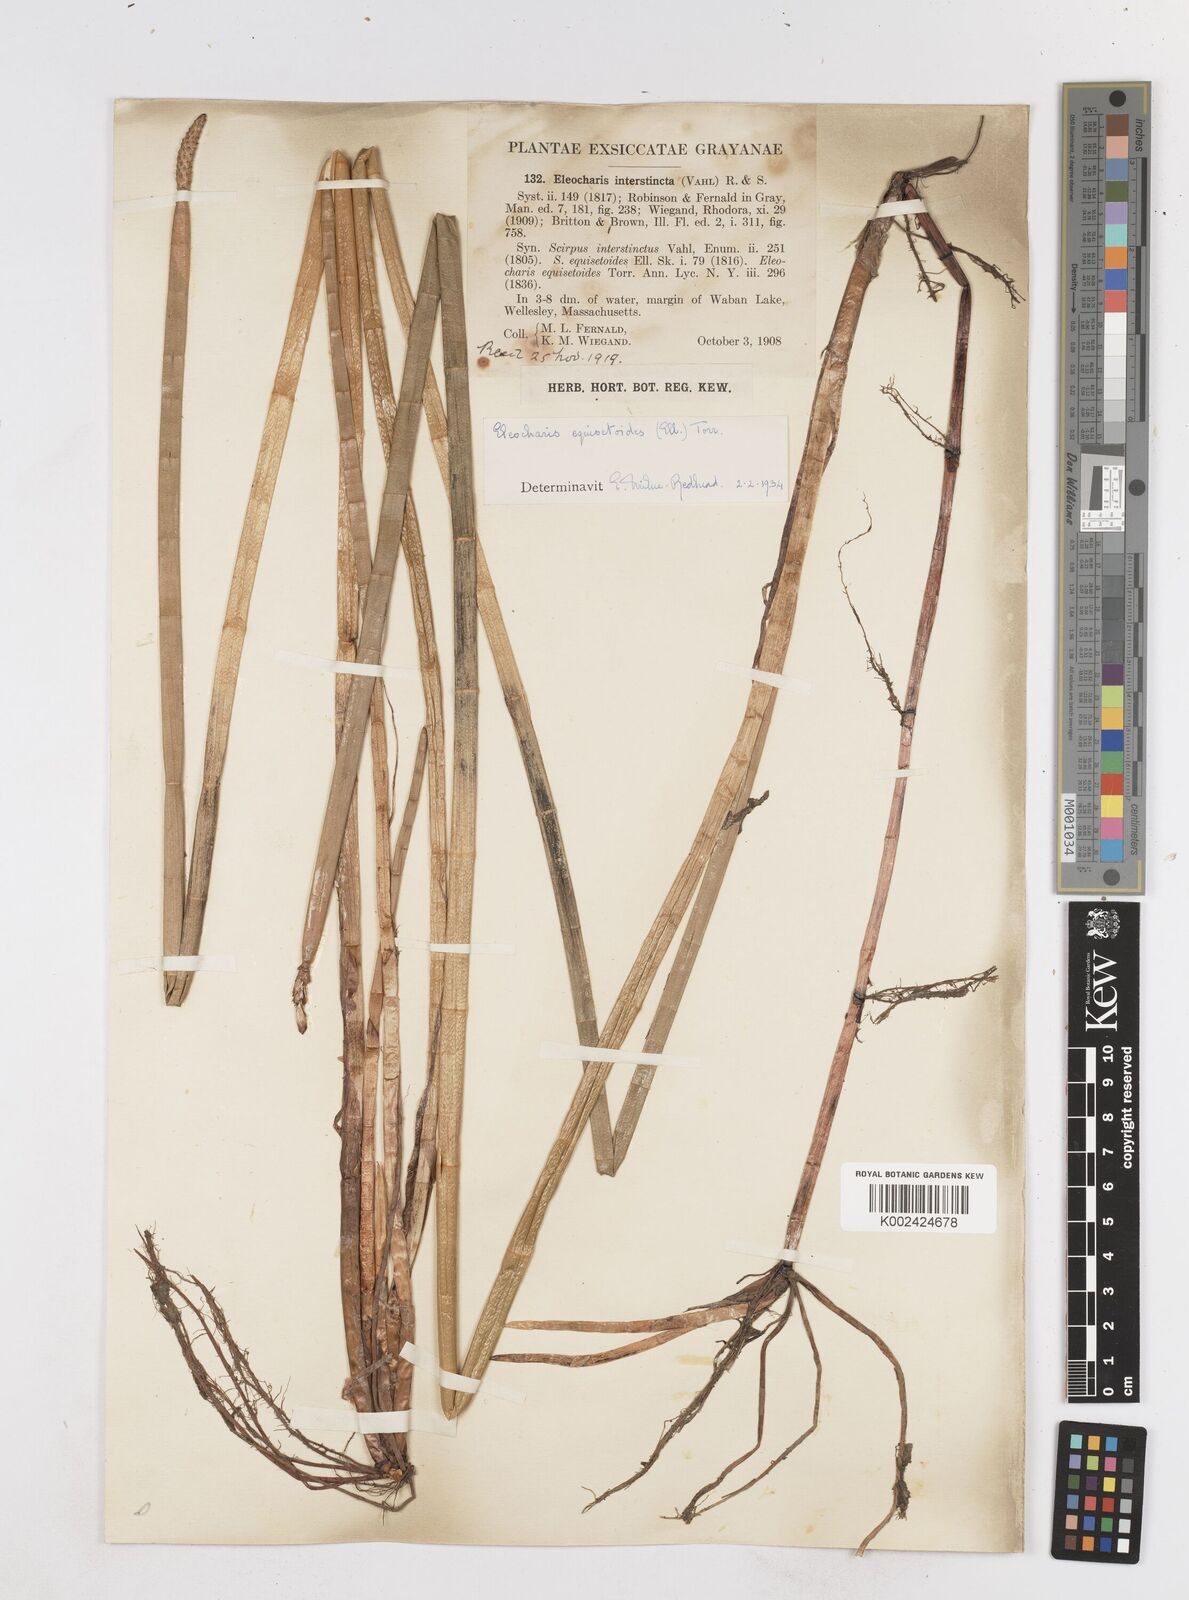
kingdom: Plantae
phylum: Tracheophyta
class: Liliopsida
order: Poales
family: Cyperaceae
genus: Eleocharis
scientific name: Eleocharis equisetoides
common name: Horsetail spike-rush
